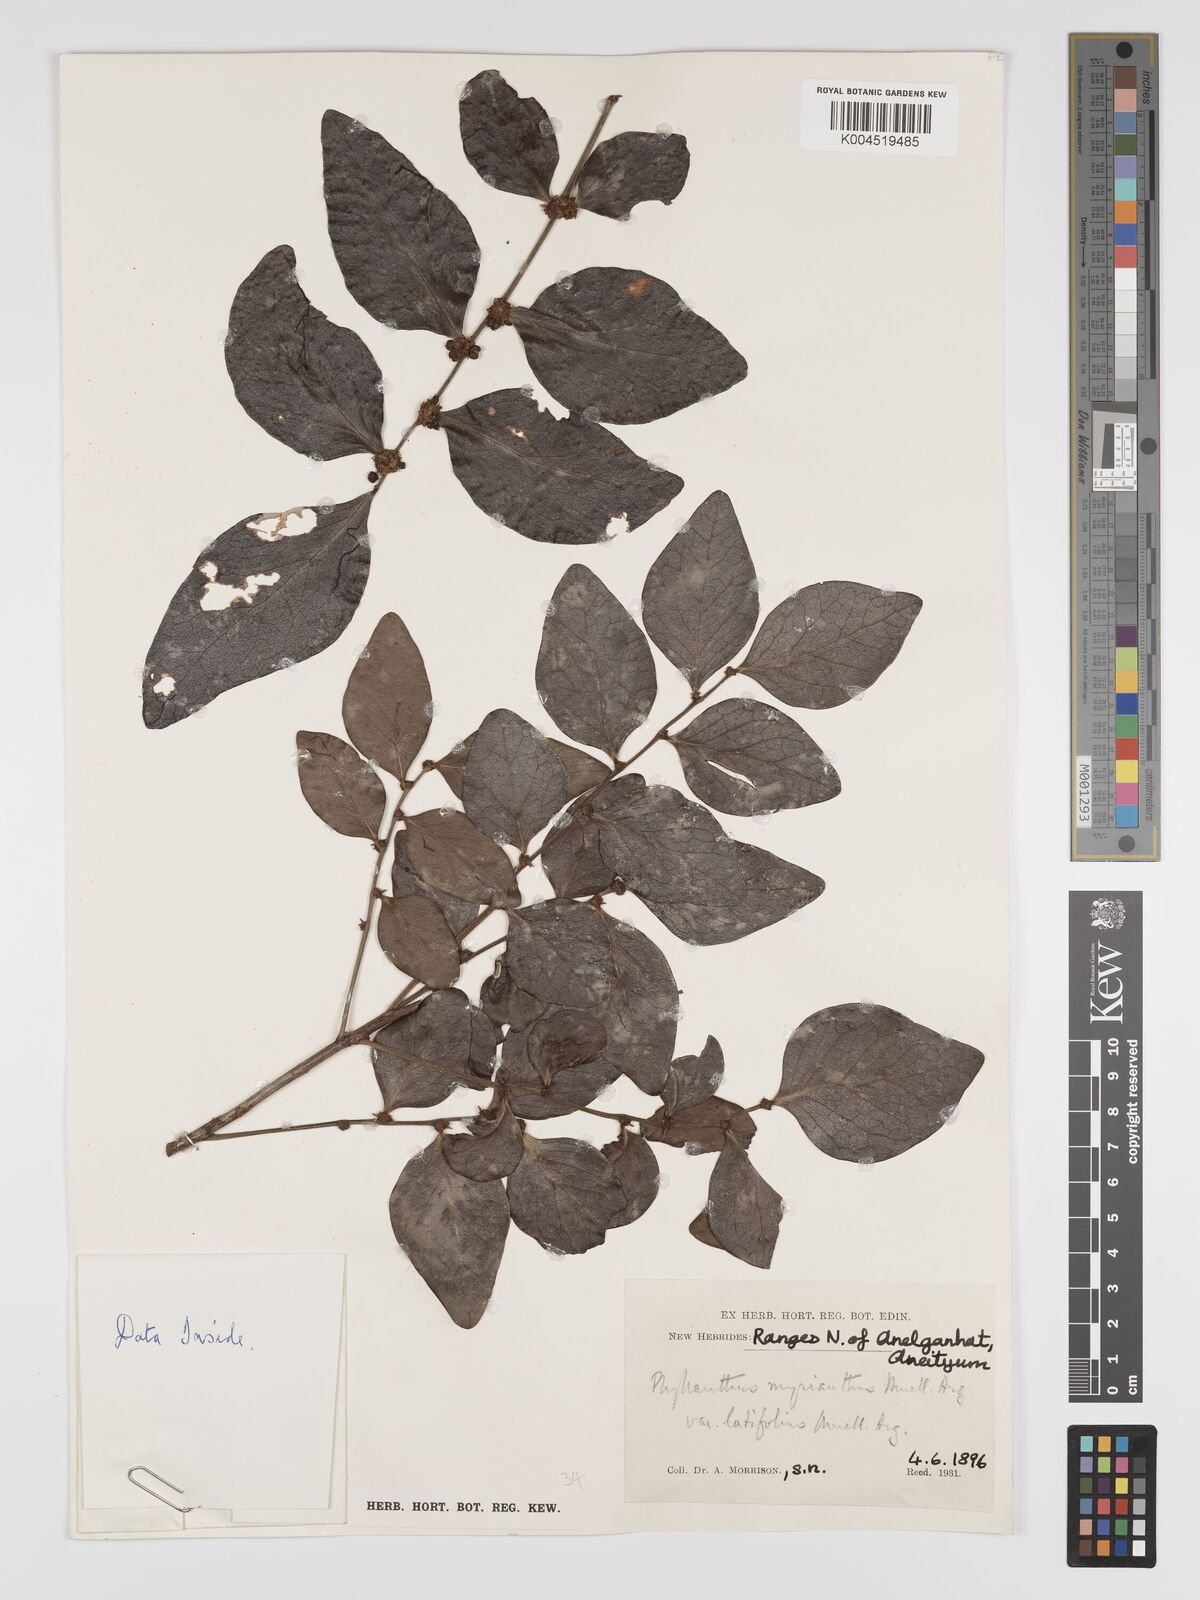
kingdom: Plantae
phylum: Tracheophyta
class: Magnoliopsida
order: Malpighiales
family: Phyllanthaceae
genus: Glochidion
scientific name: Glochidion myrianthum
